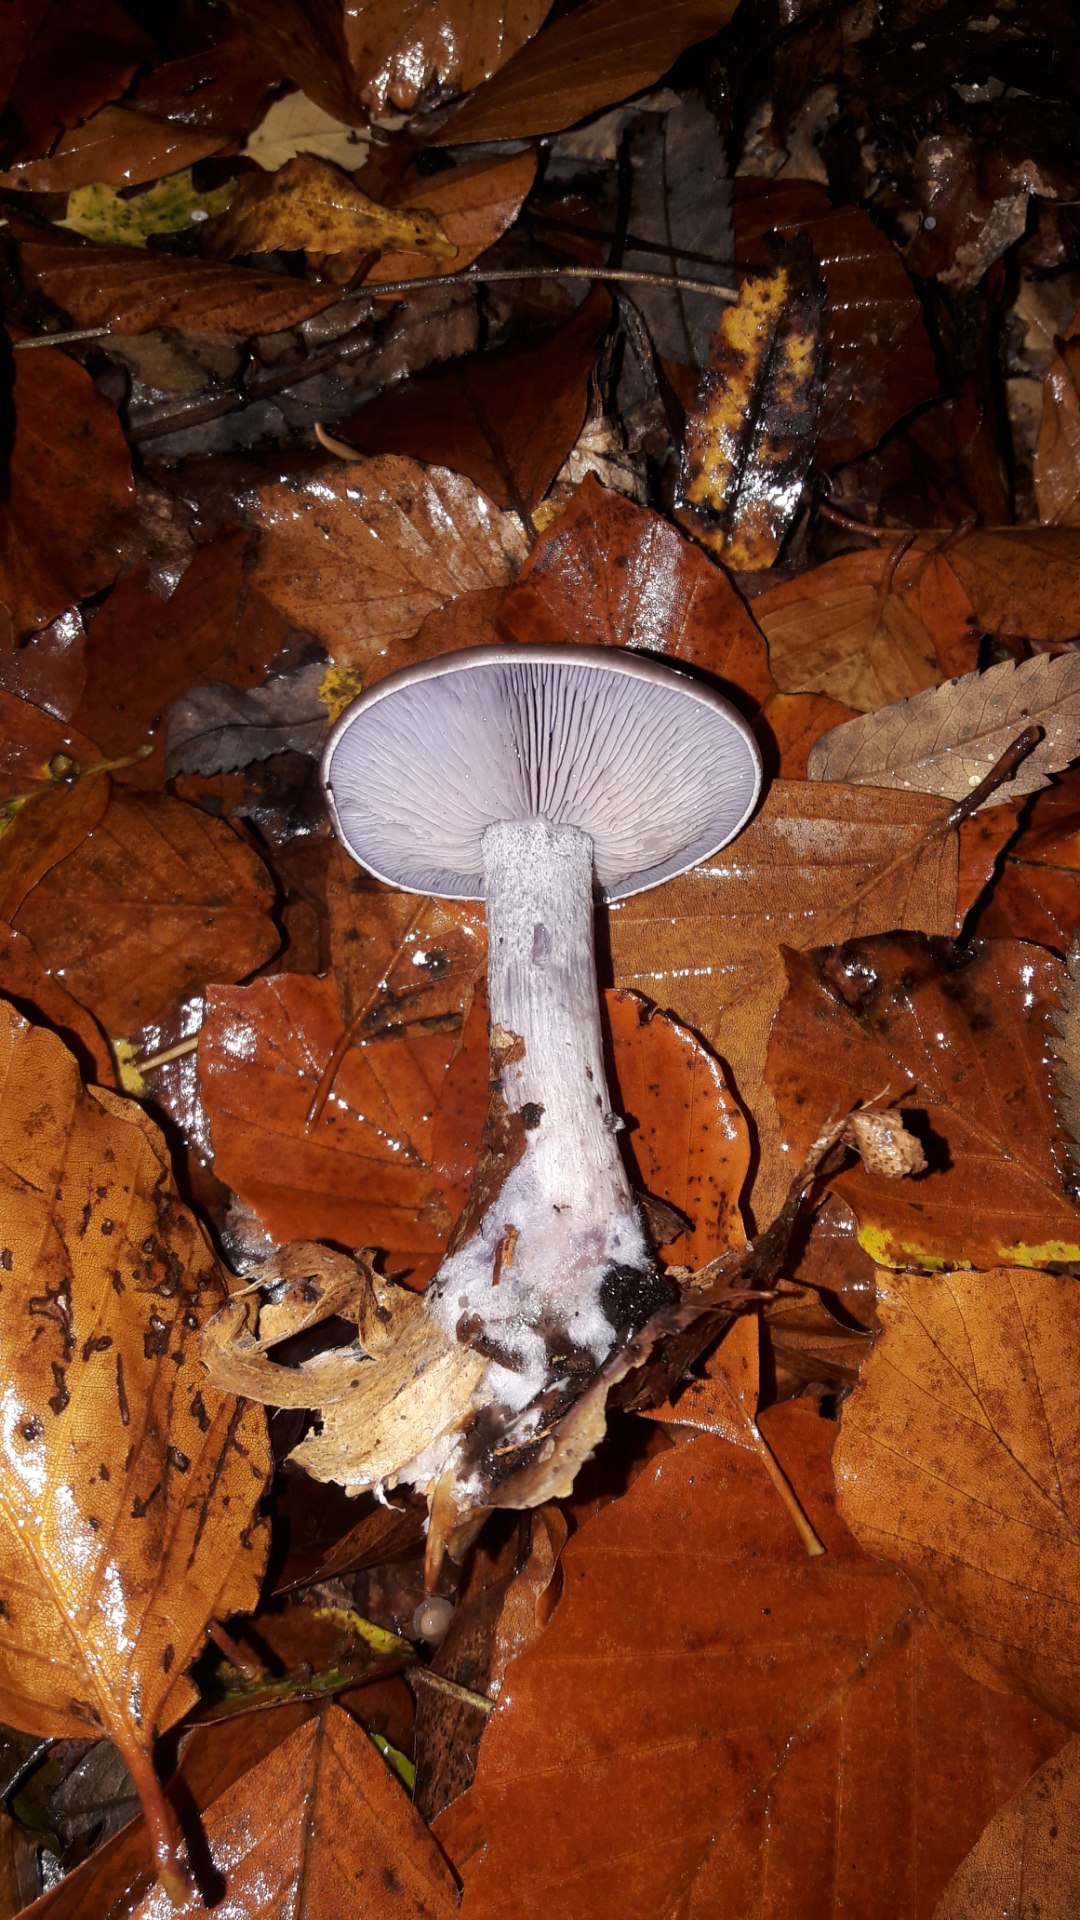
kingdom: Fungi
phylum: Basidiomycota
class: Agaricomycetes
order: Agaricales
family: Tricholomataceae
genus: Lepista
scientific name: Lepista nuda
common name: violet hekseringshat
